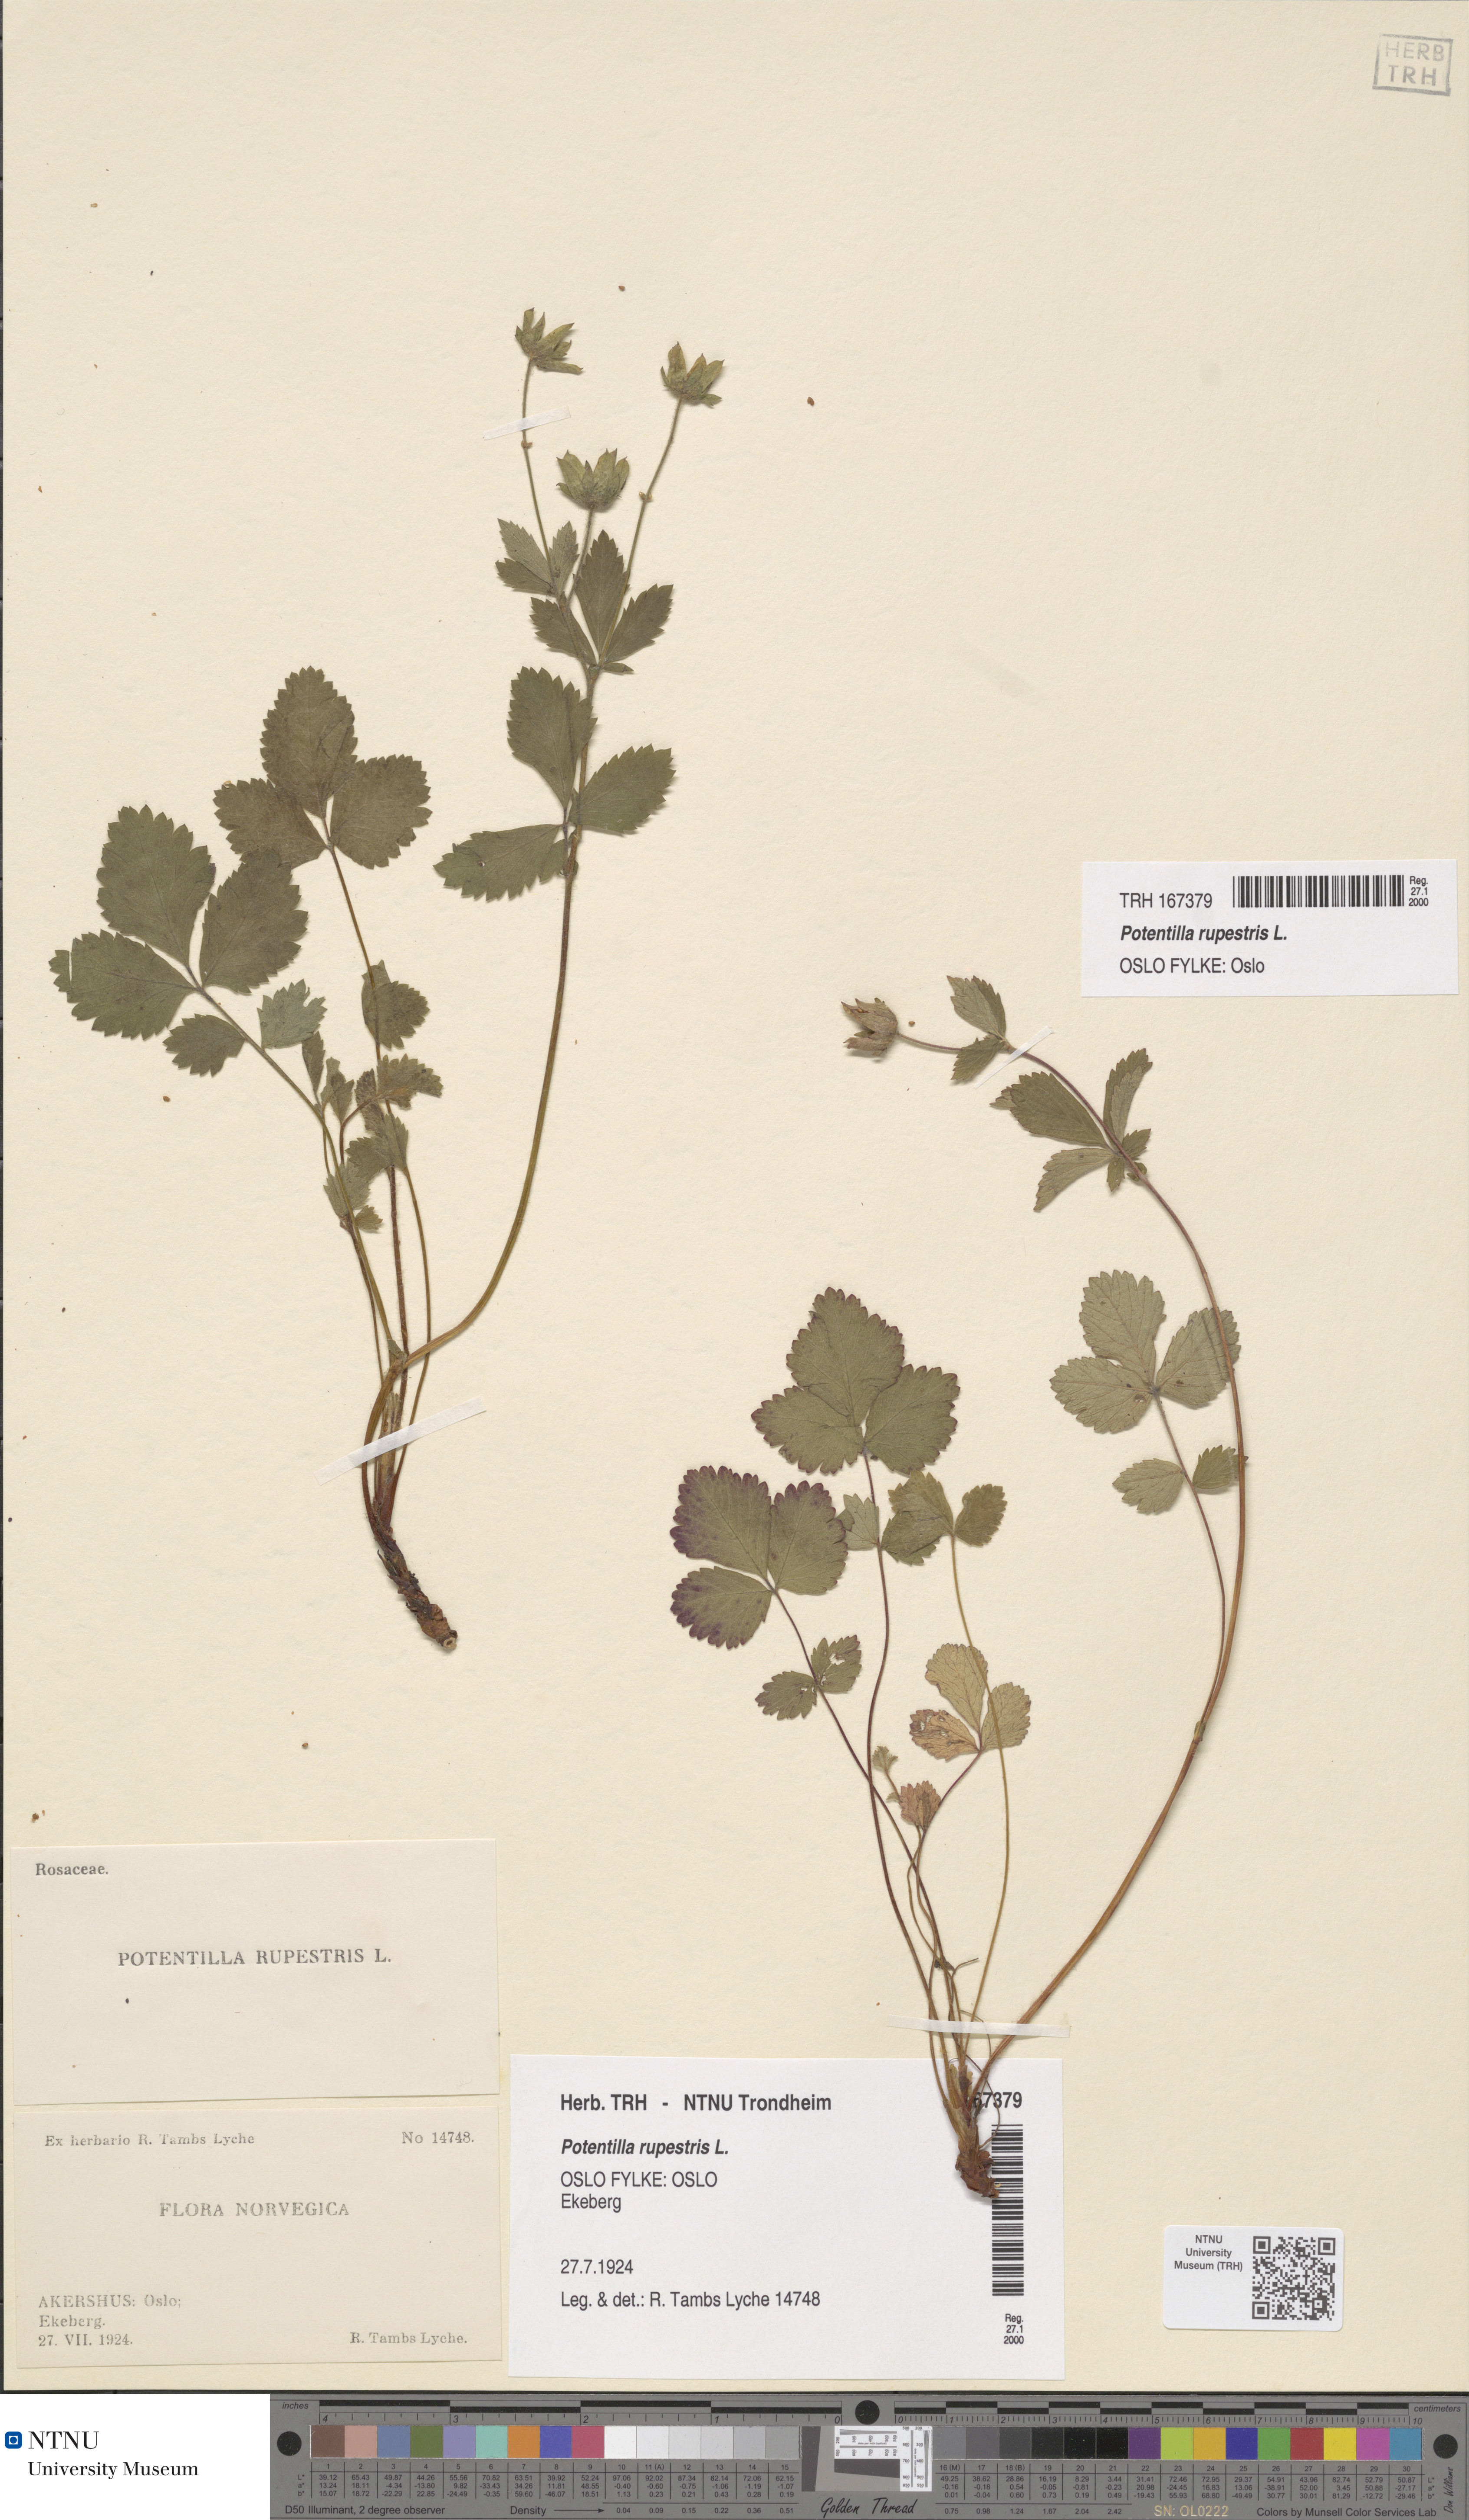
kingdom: Plantae
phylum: Tracheophyta
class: Magnoliopsida
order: Rosales
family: Rosaceae
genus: Drymocallis
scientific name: Drymocallis rupestris
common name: Rock cinquefoil
